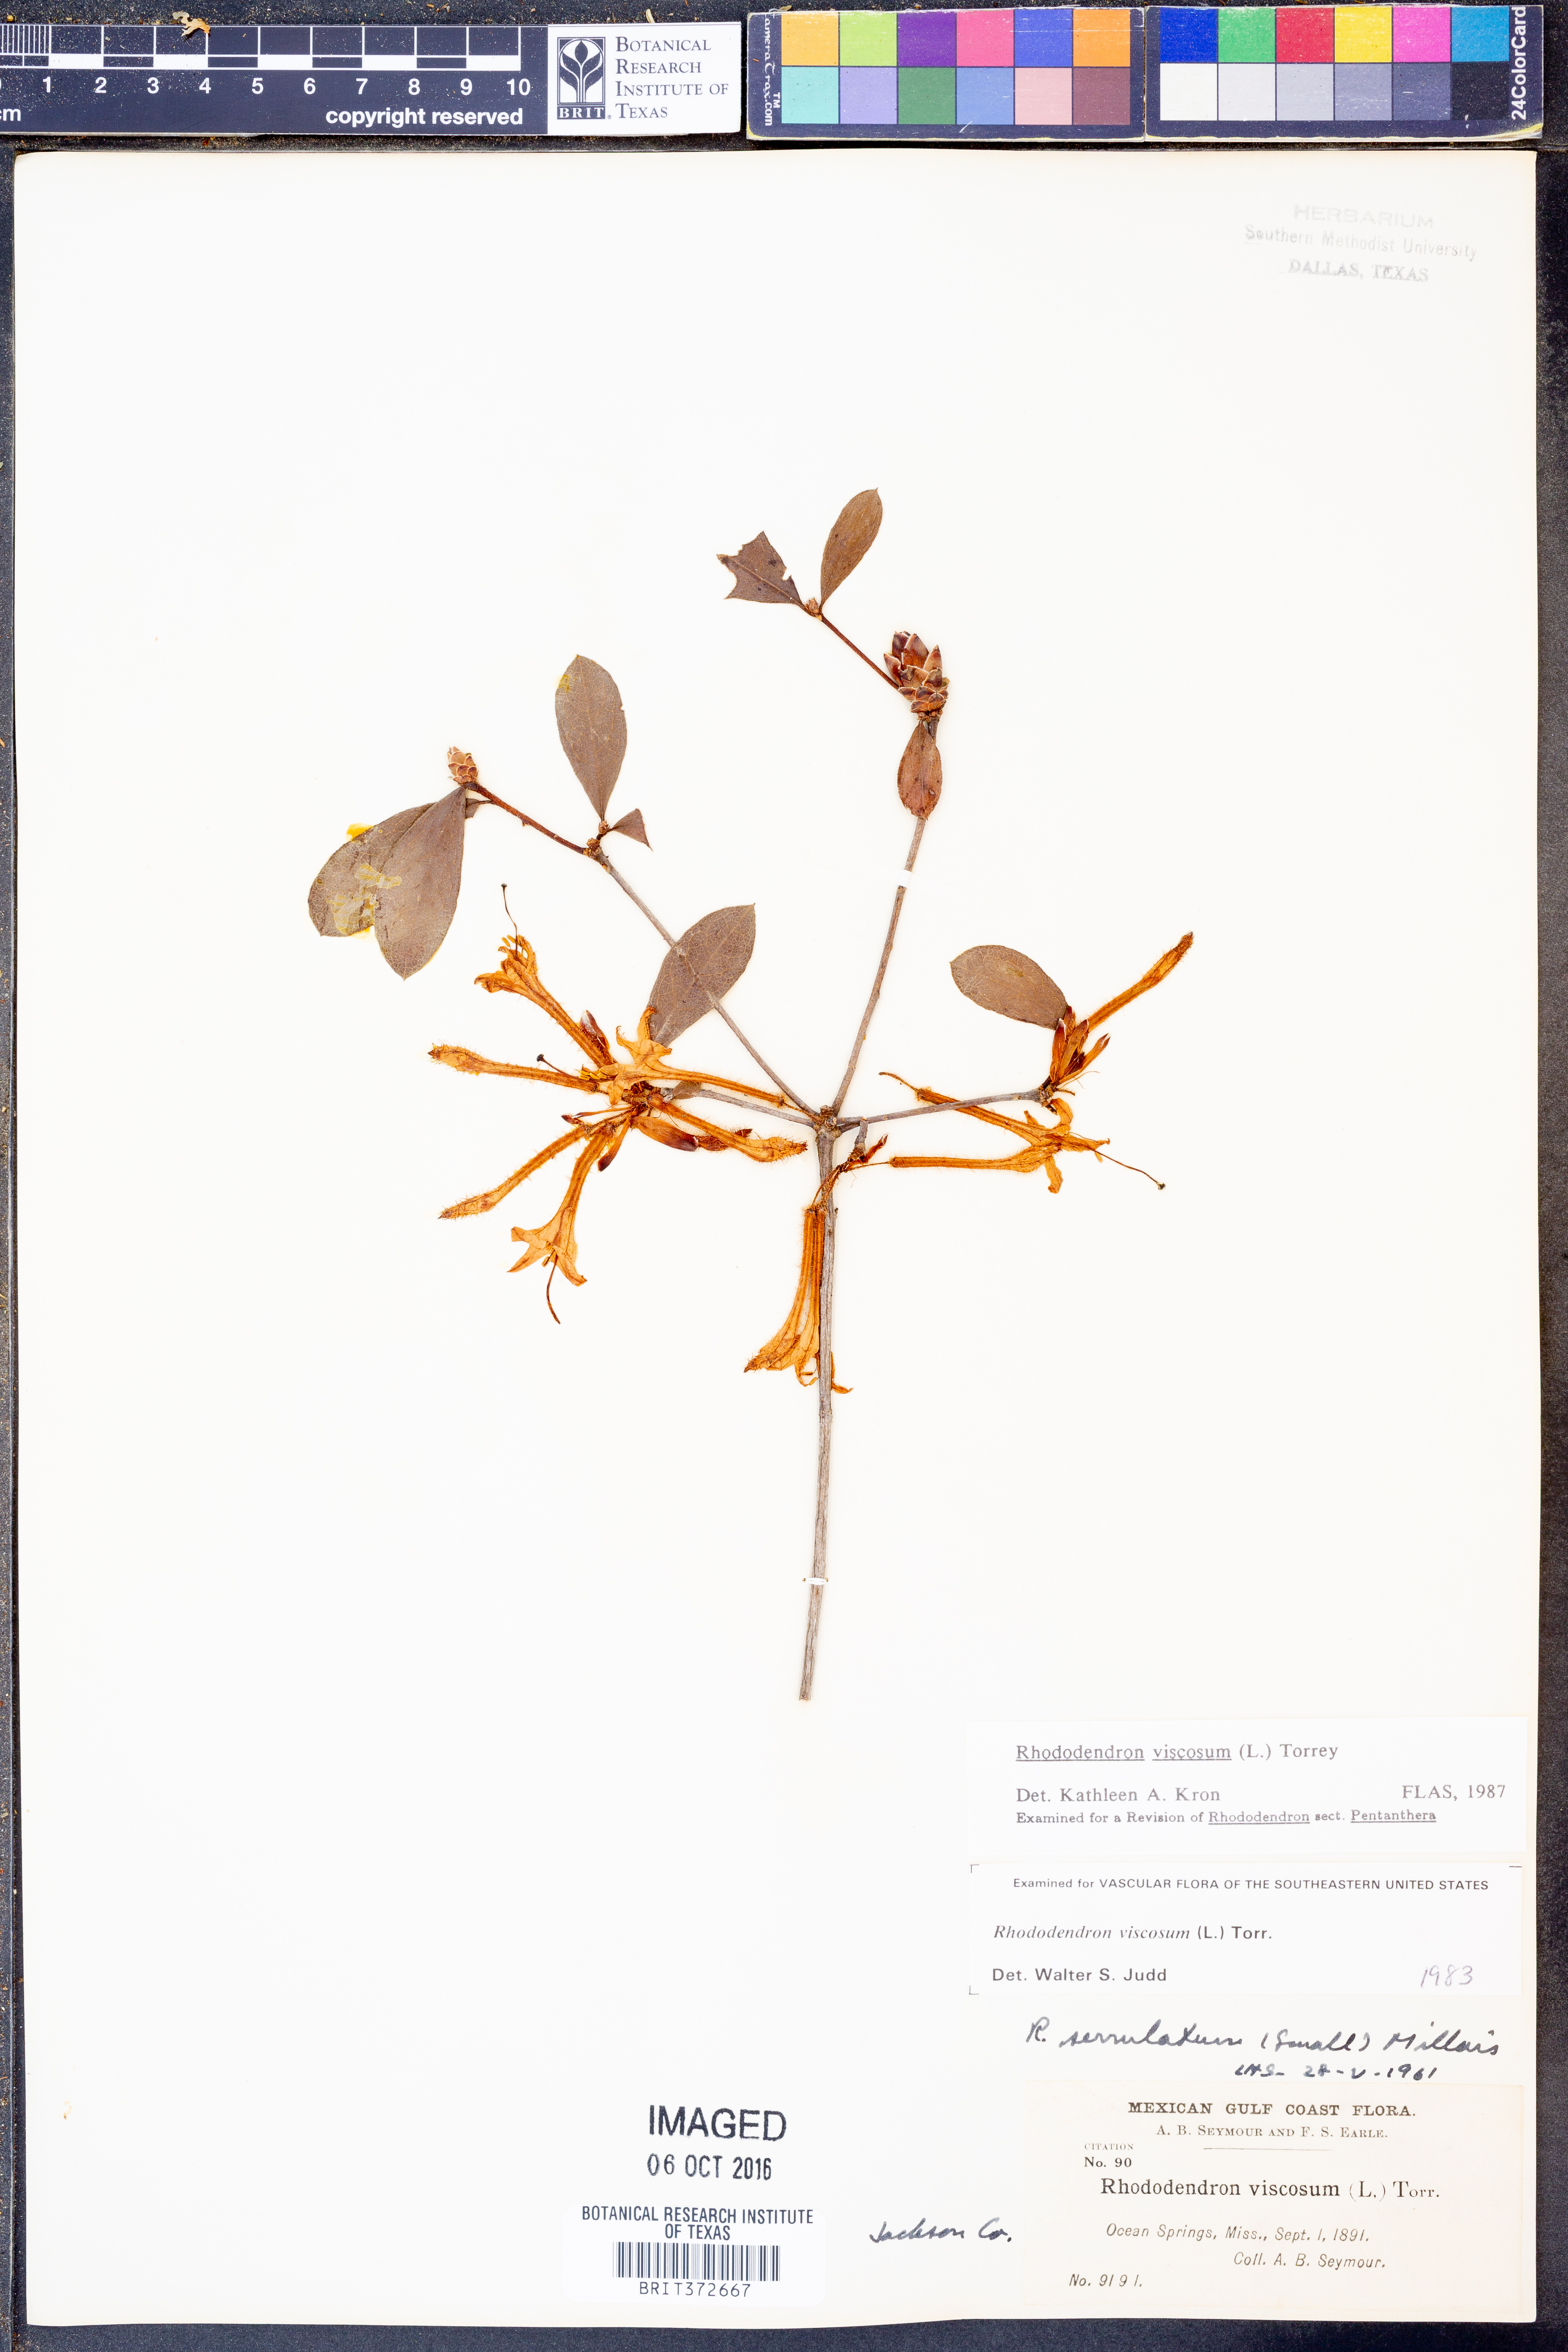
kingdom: Plantae
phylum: Tracheophyta
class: Magnoliopsida
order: Ericales
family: Ericaceae
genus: Rhododendron
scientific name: Rhododendron viscosum
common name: Clammy azalea
